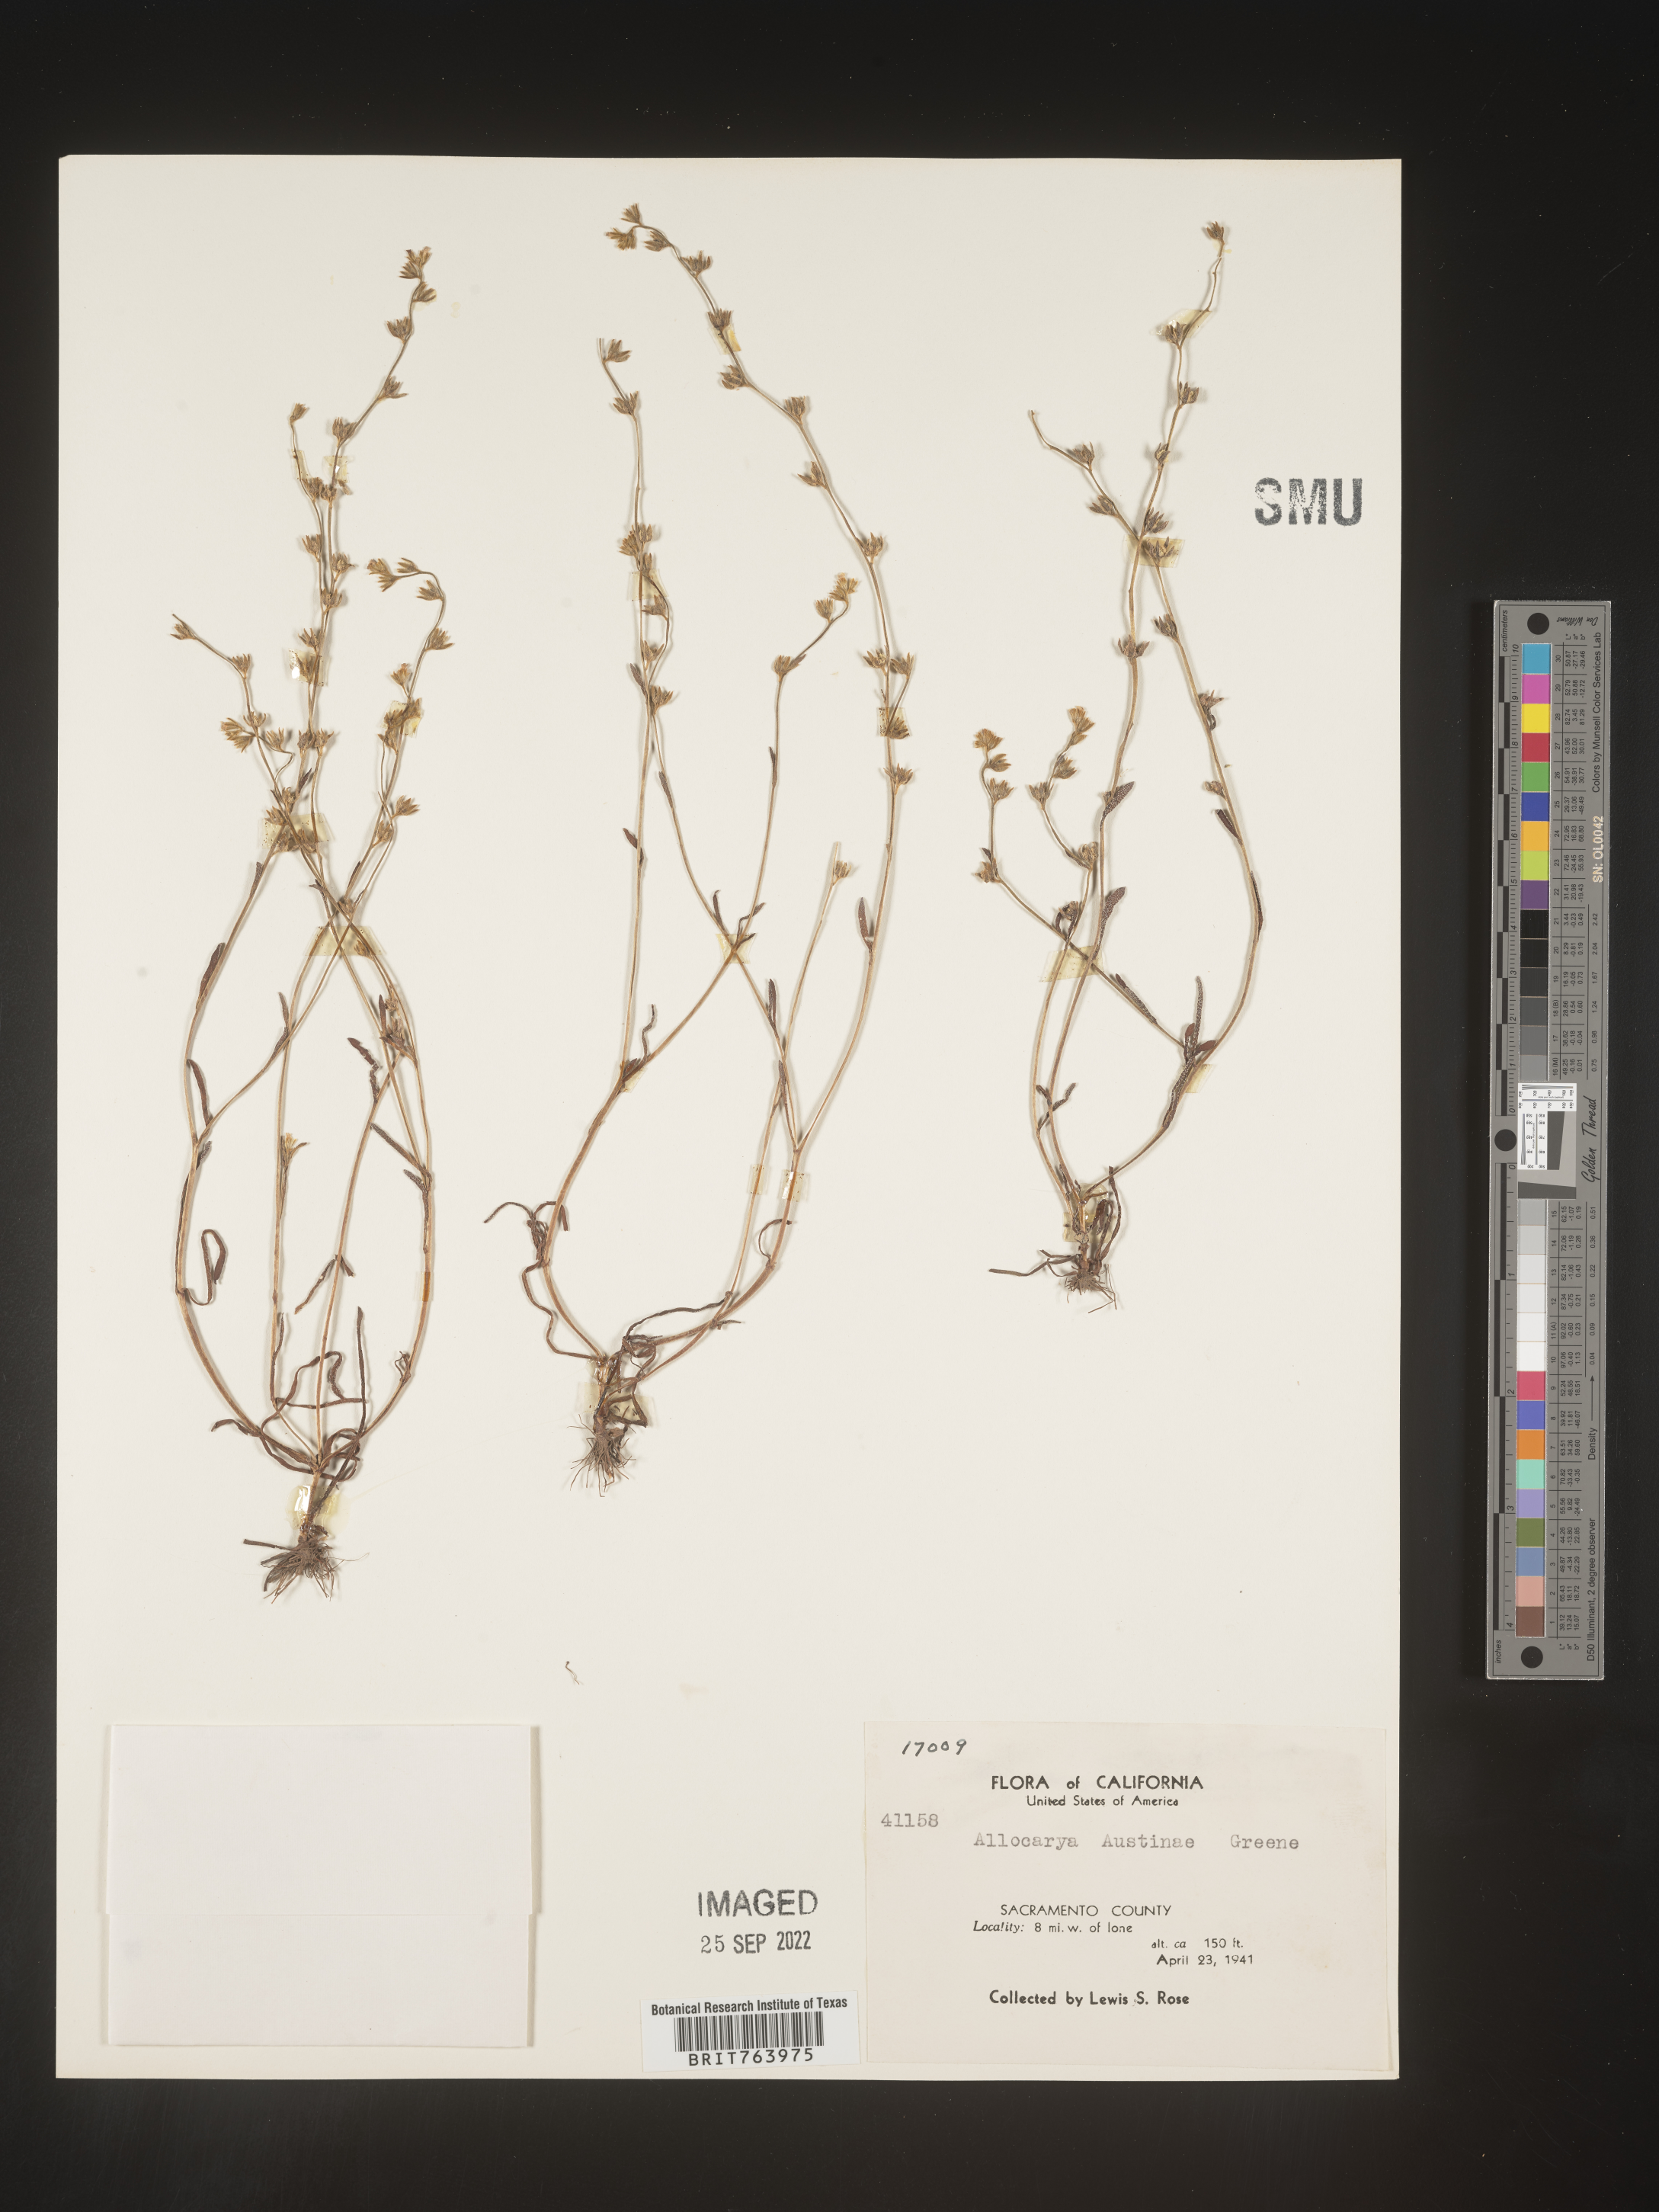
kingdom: Plantae
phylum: Tracheophyta
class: Magnoliopsida
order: Boraginales
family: Boraginaceae
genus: Plagiobothrys
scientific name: Plagiobothrys
